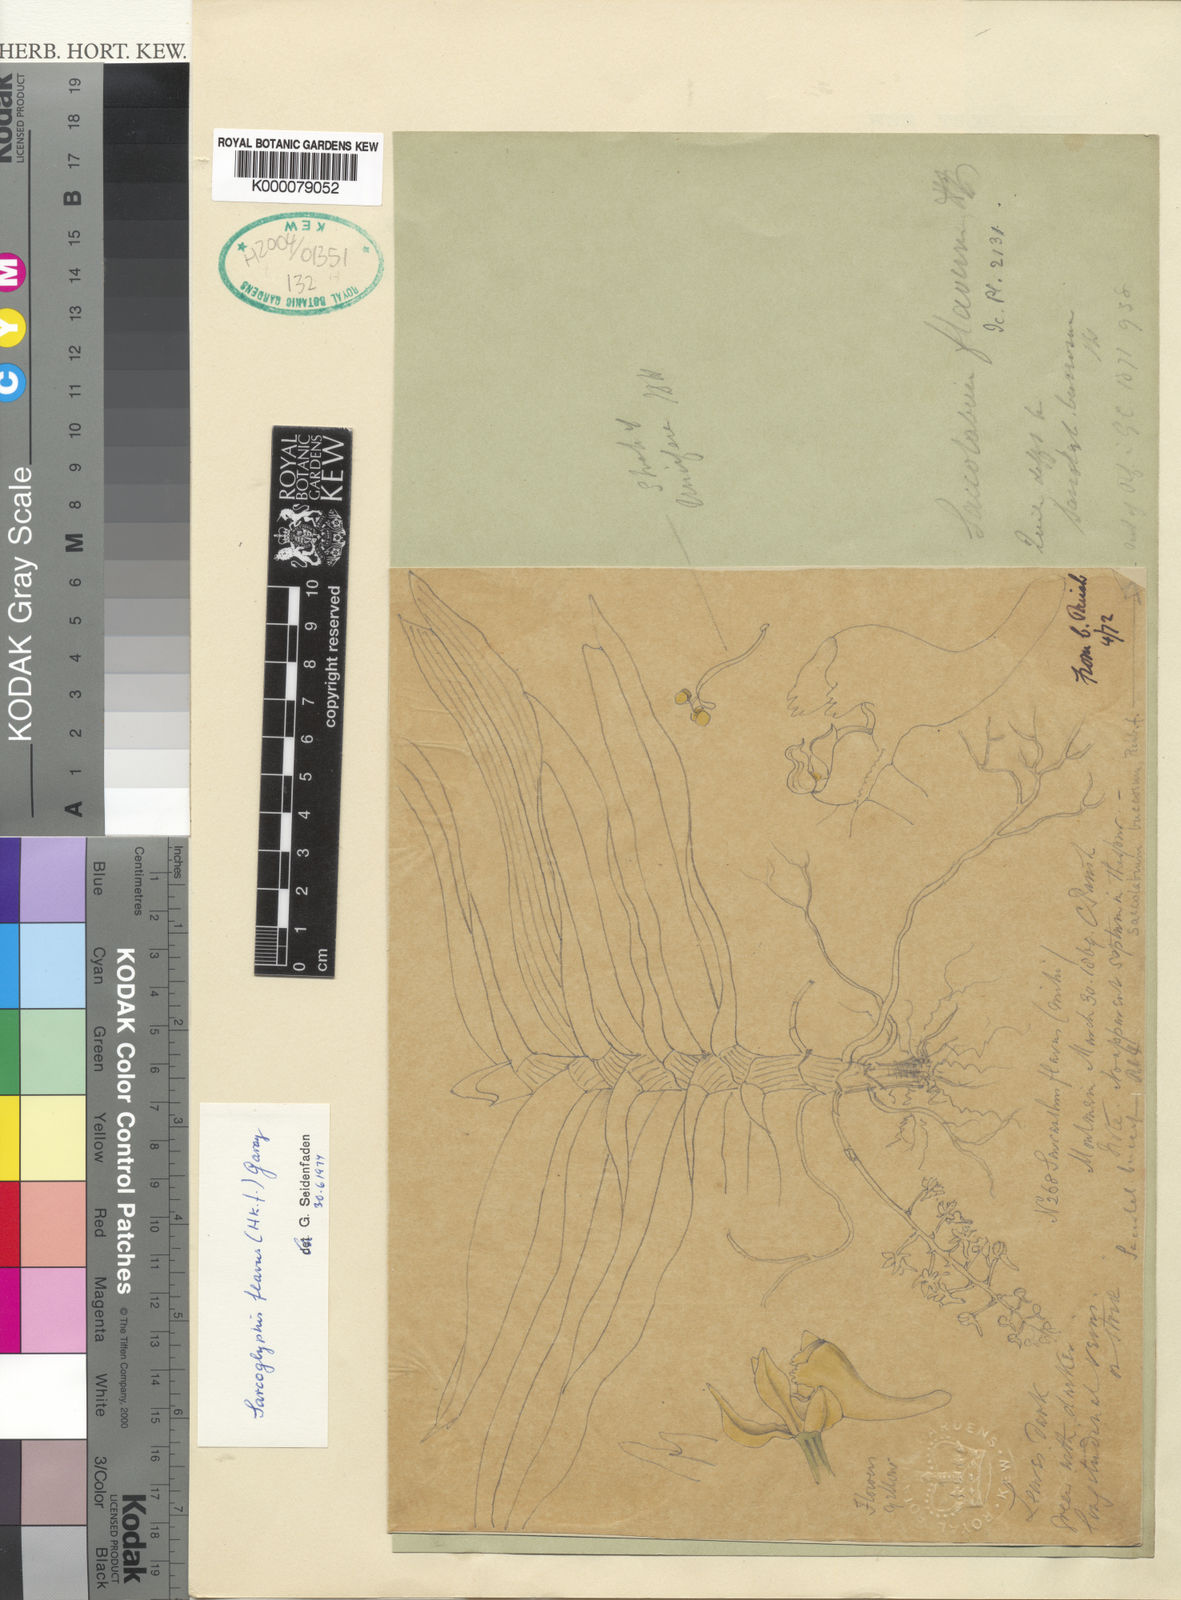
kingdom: Plantae
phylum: Tracheophyta
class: Liliopsida
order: Asparagales
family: Orchidaceae
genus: Sarcoglyphis
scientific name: Sarcoglyphis flava
